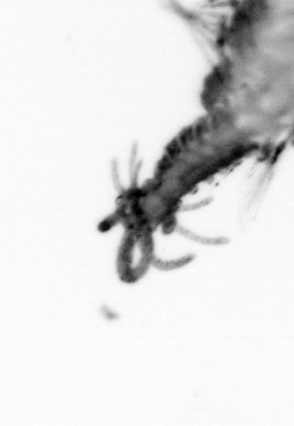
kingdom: Animalia
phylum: Annelida
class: Polychaeta
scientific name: Polychaeta
